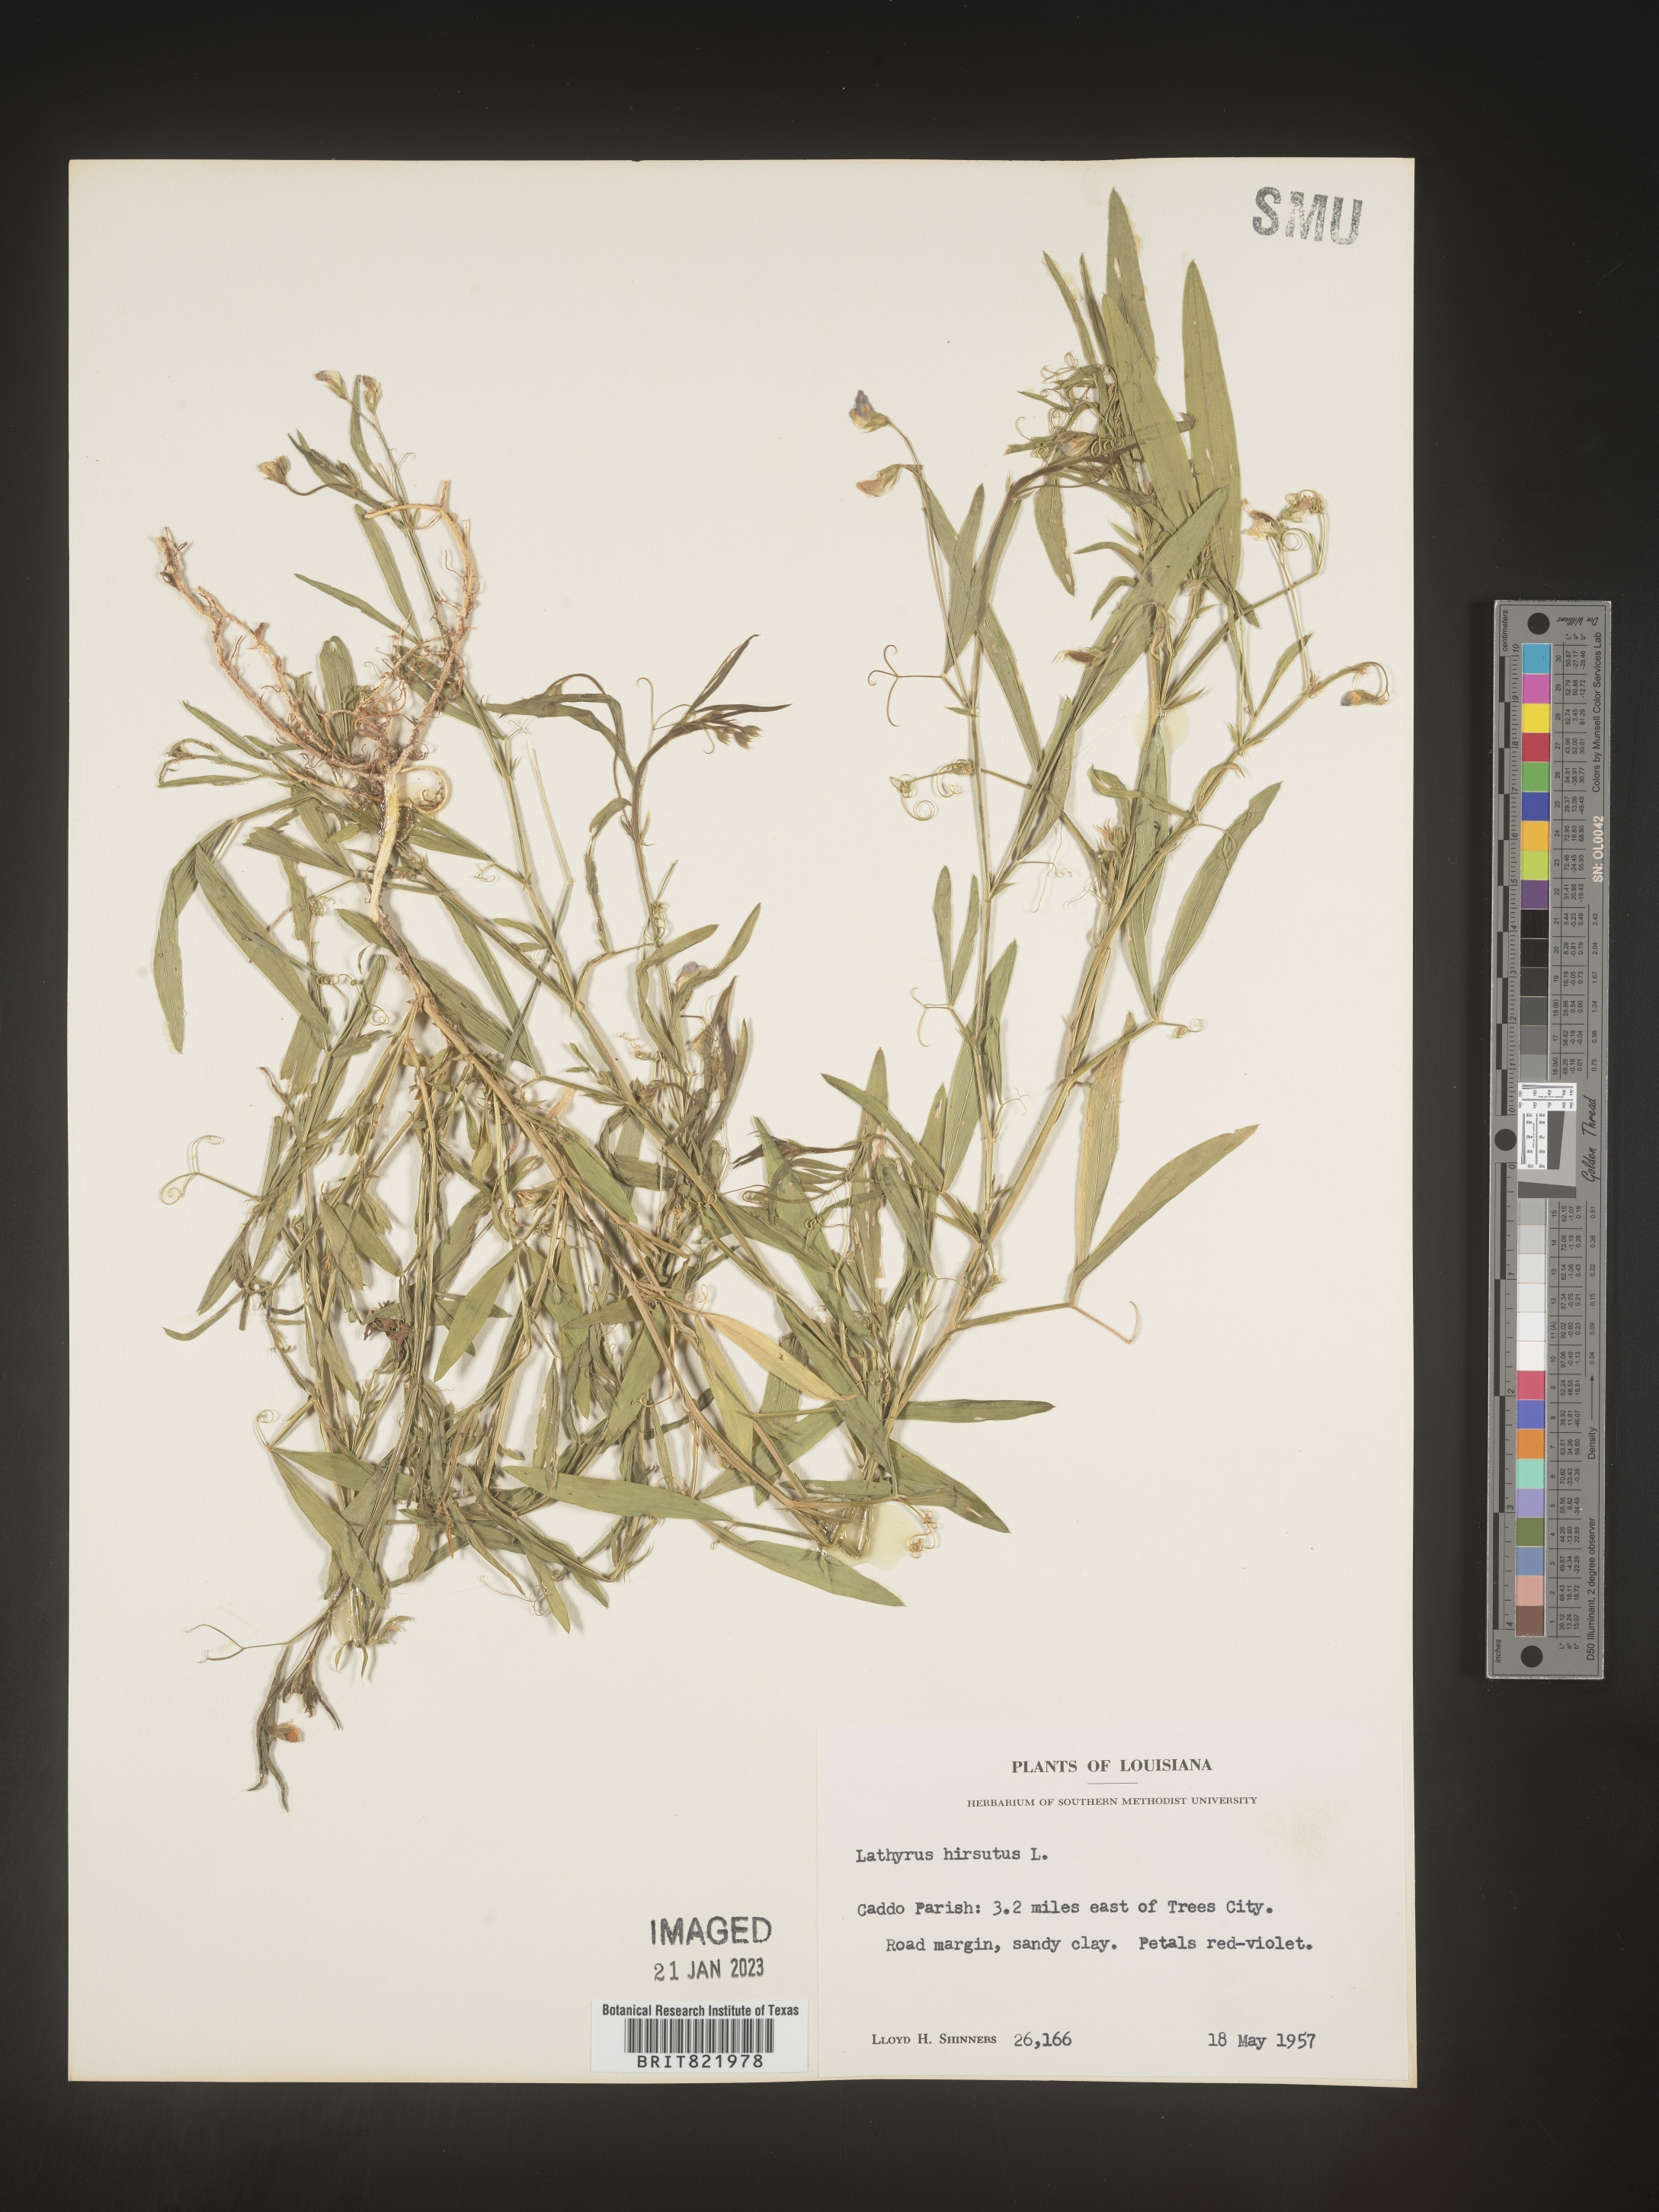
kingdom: Plantae
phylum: Tracheophyta
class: Magnoliopsida
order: Fabales
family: Fabaceae
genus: Lathyrus
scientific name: Lathyrus hirsutus
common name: Hairy vetchling
